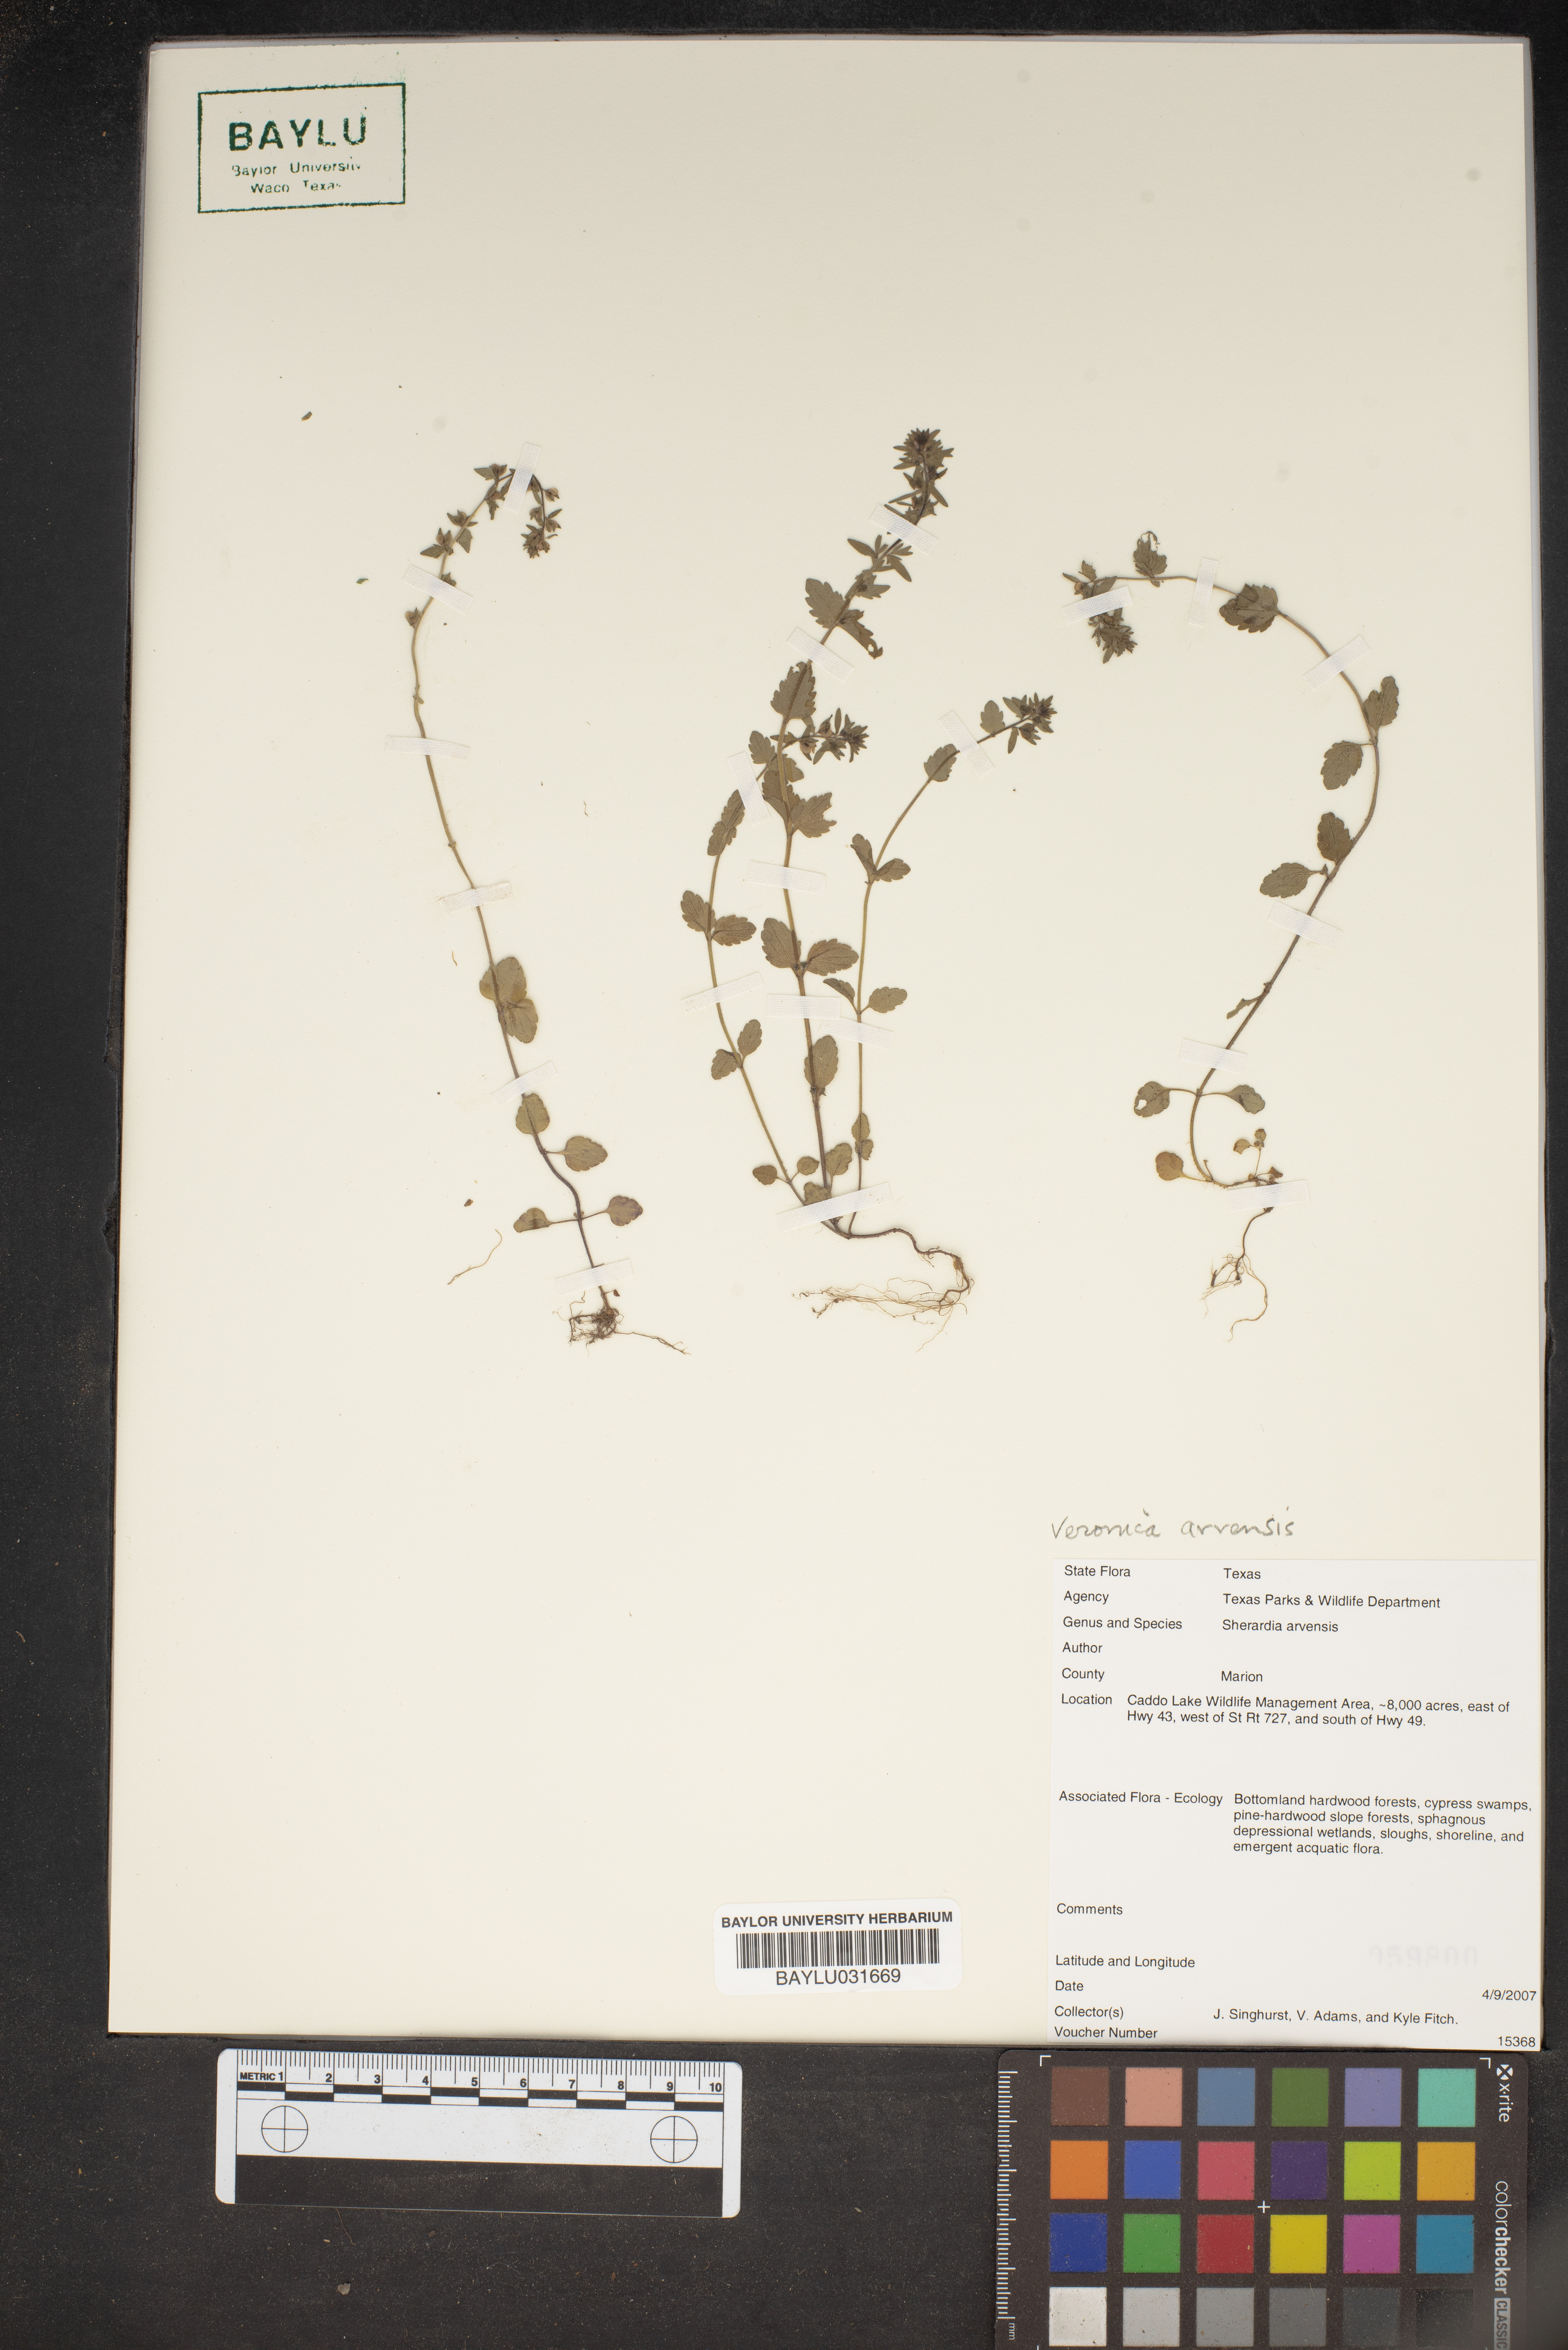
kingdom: Plantae
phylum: Tracheophyta
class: Magnoliopsida
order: Gentianales
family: Rubiaceae
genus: Sherardia
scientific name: Sherardia arvensis
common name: Field madder
